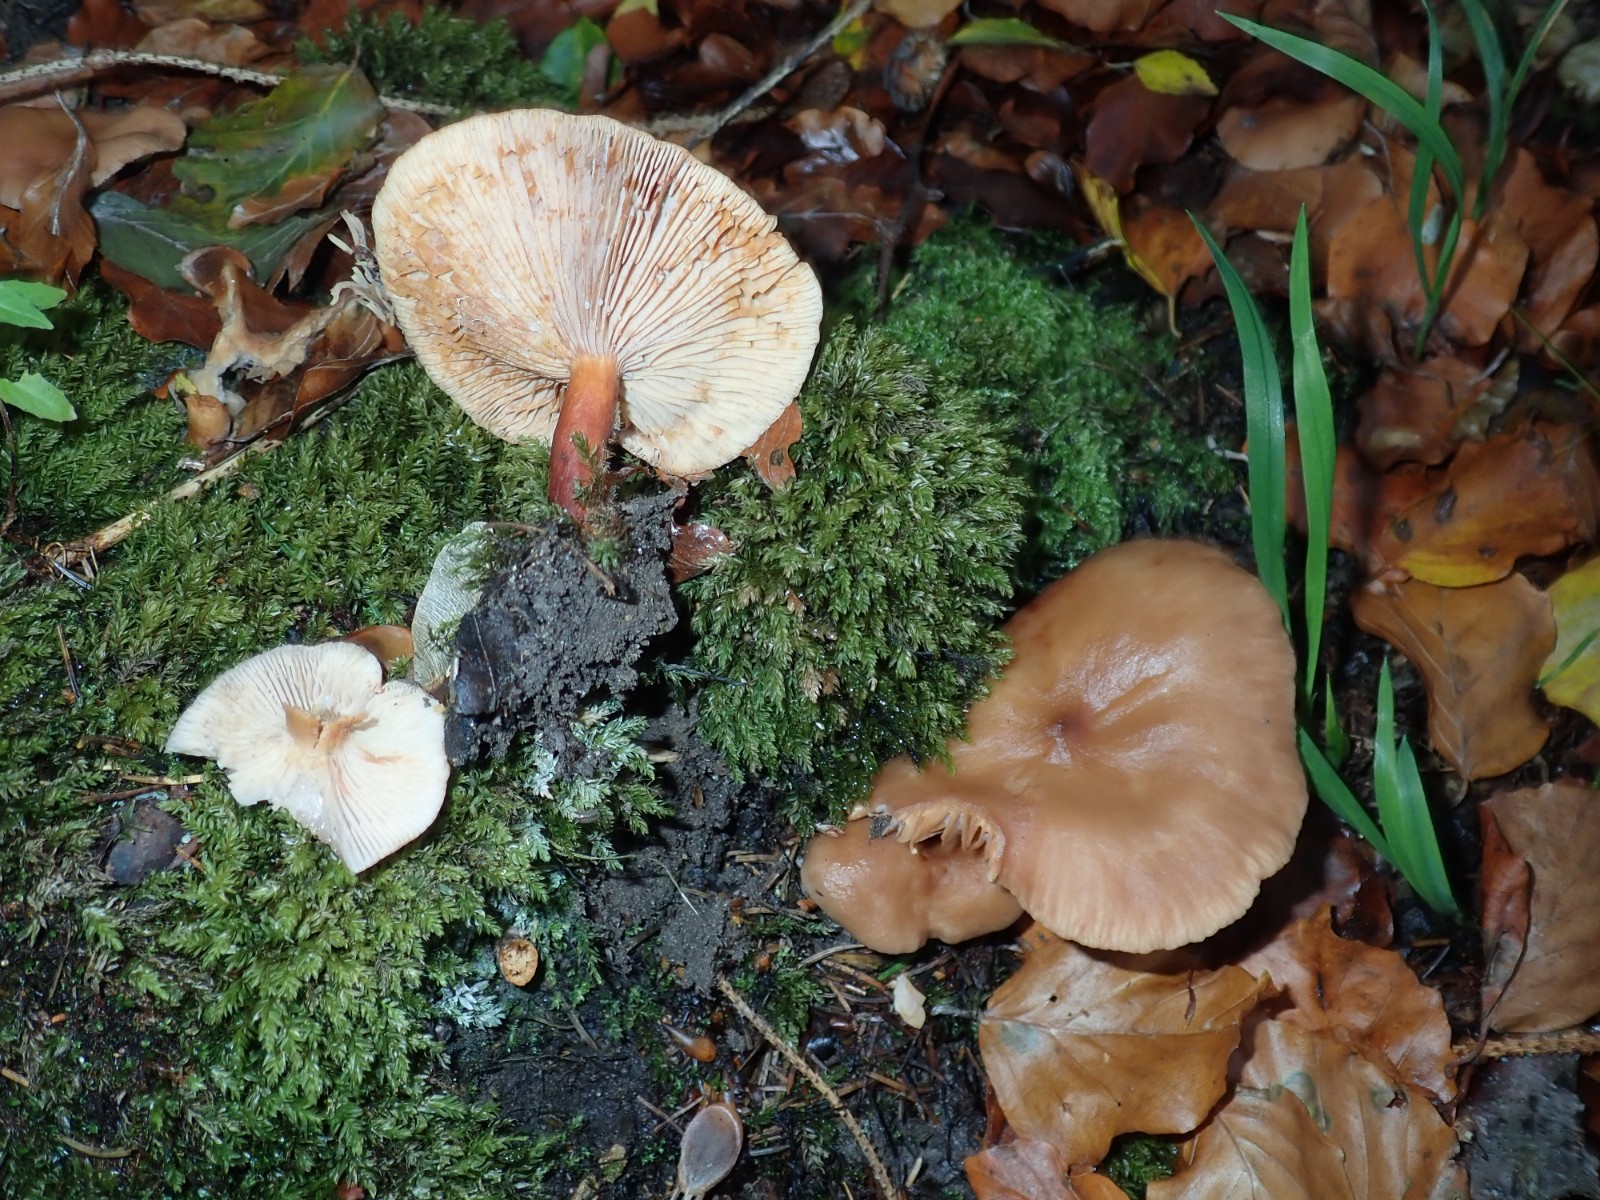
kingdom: Fungi
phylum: Basidiomycota
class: Agaricomycetes
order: Russulales
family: Russulaceae
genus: Lactarius
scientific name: Lactarius subdulcis
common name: sødlig mælkehat
